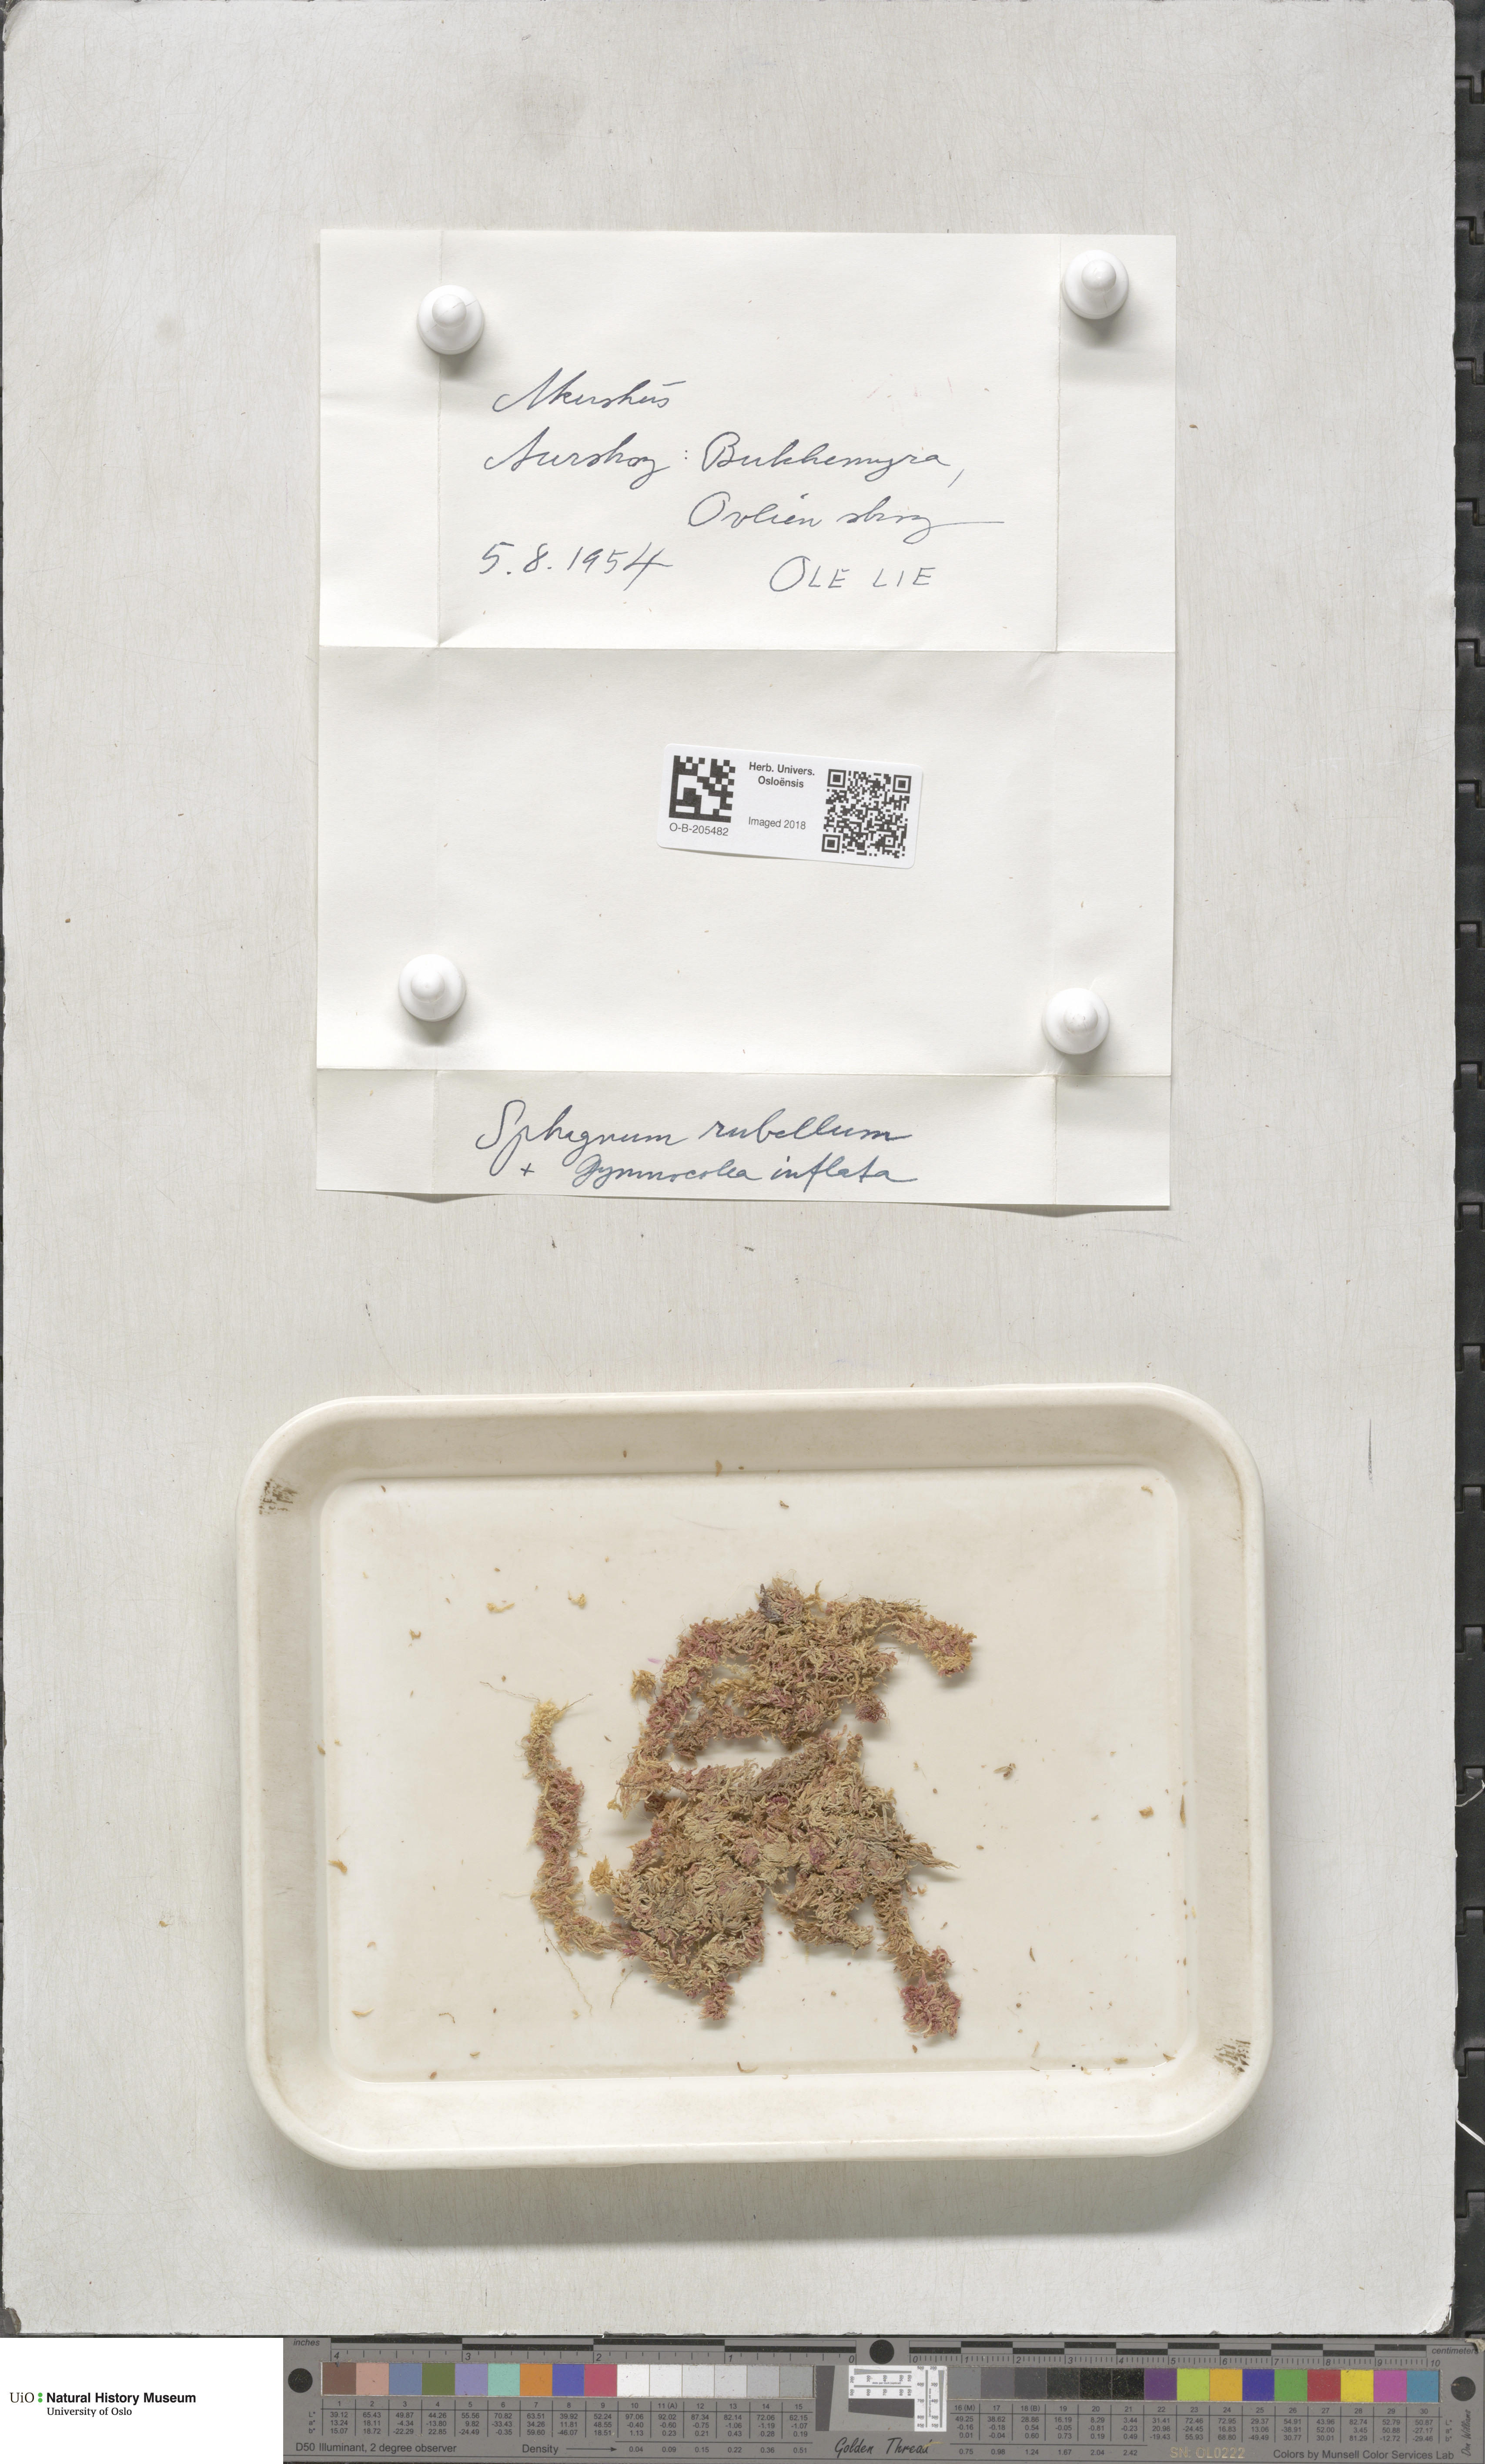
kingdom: Plantae
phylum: Bryophyta
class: Sphagnopsida
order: Sphagnales
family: Sphagnaceae
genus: Sphagnum
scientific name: Sphagnum rubellum
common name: Red peat moss
